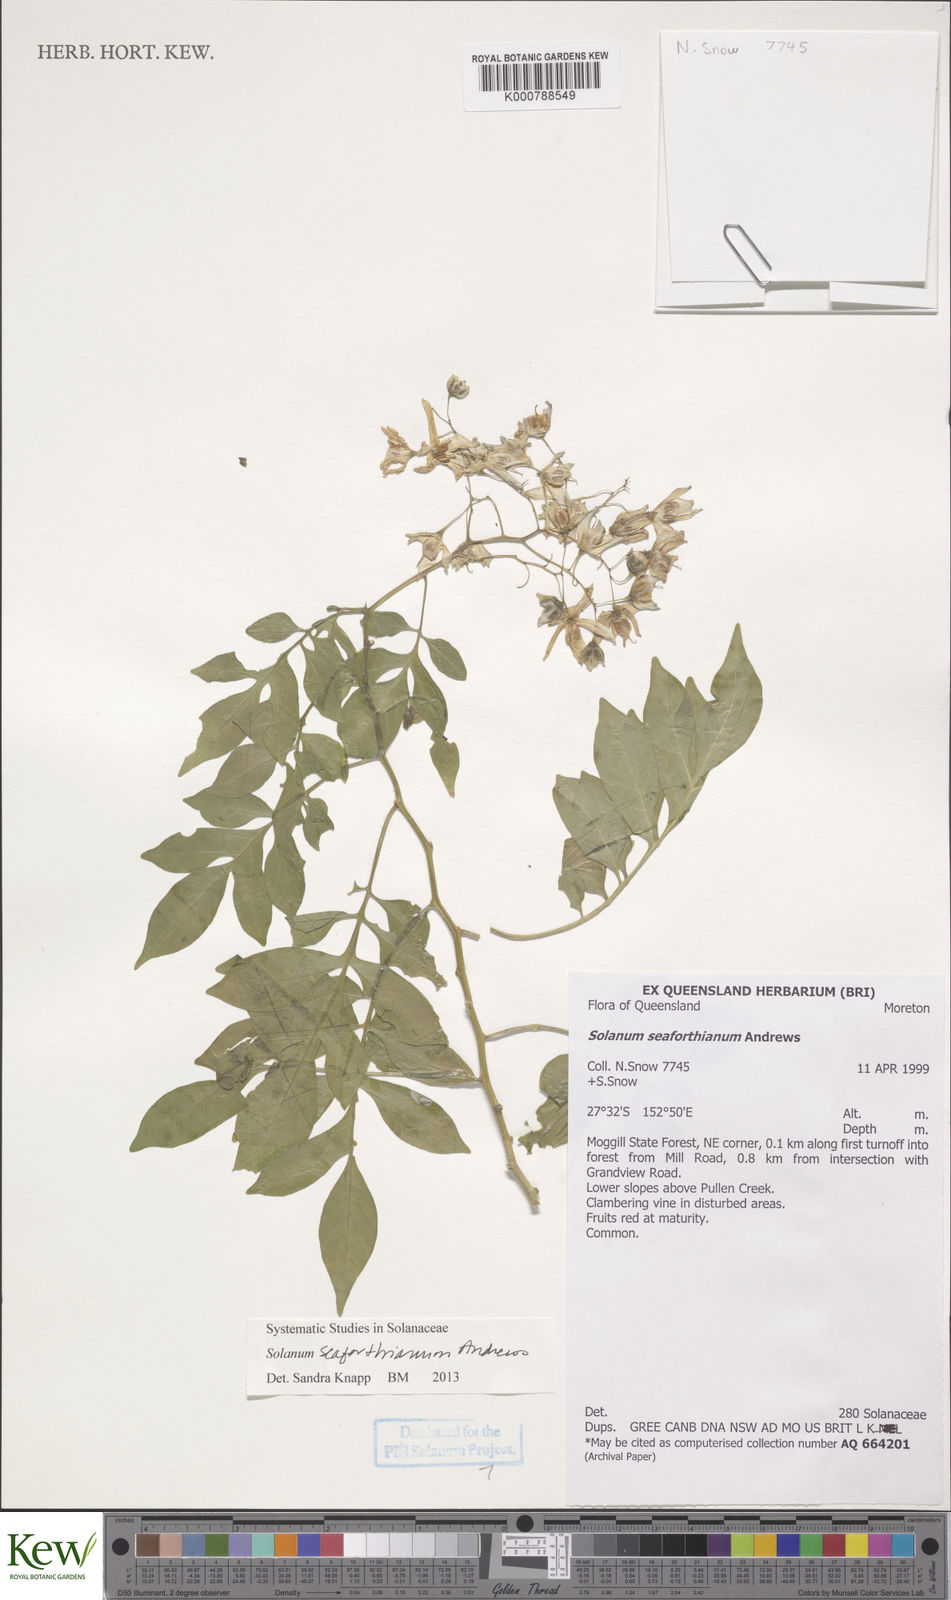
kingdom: Plantae
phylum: Tracheophyta
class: Magnoliopsida
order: Solanales
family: Solanaceae
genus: Solanum
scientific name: Solanum seaforthianum
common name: Brazilian nightshade
